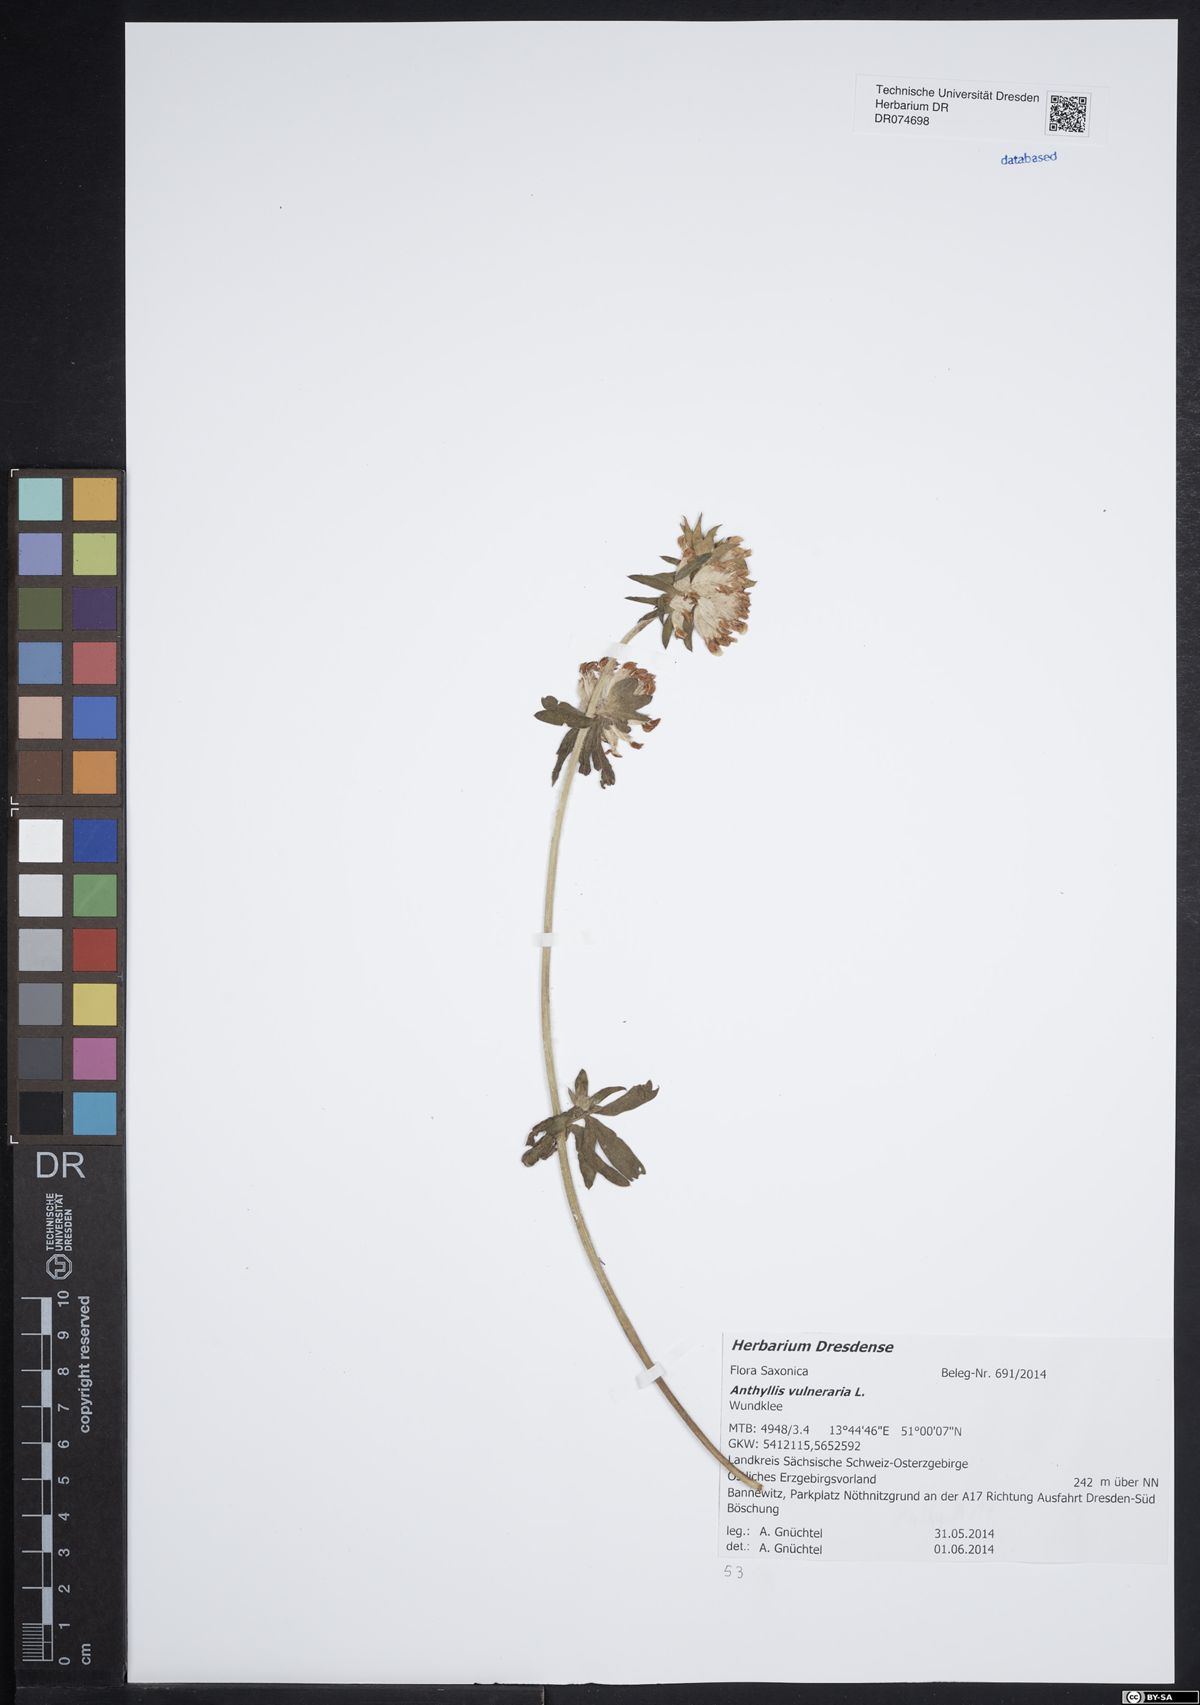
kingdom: Plantae
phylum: Tracheophyta
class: Magnoliopsida
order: Fabales
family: Fabaceae
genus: Anthyllis
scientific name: Anthyllis vulneraria
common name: Kidney vetch
